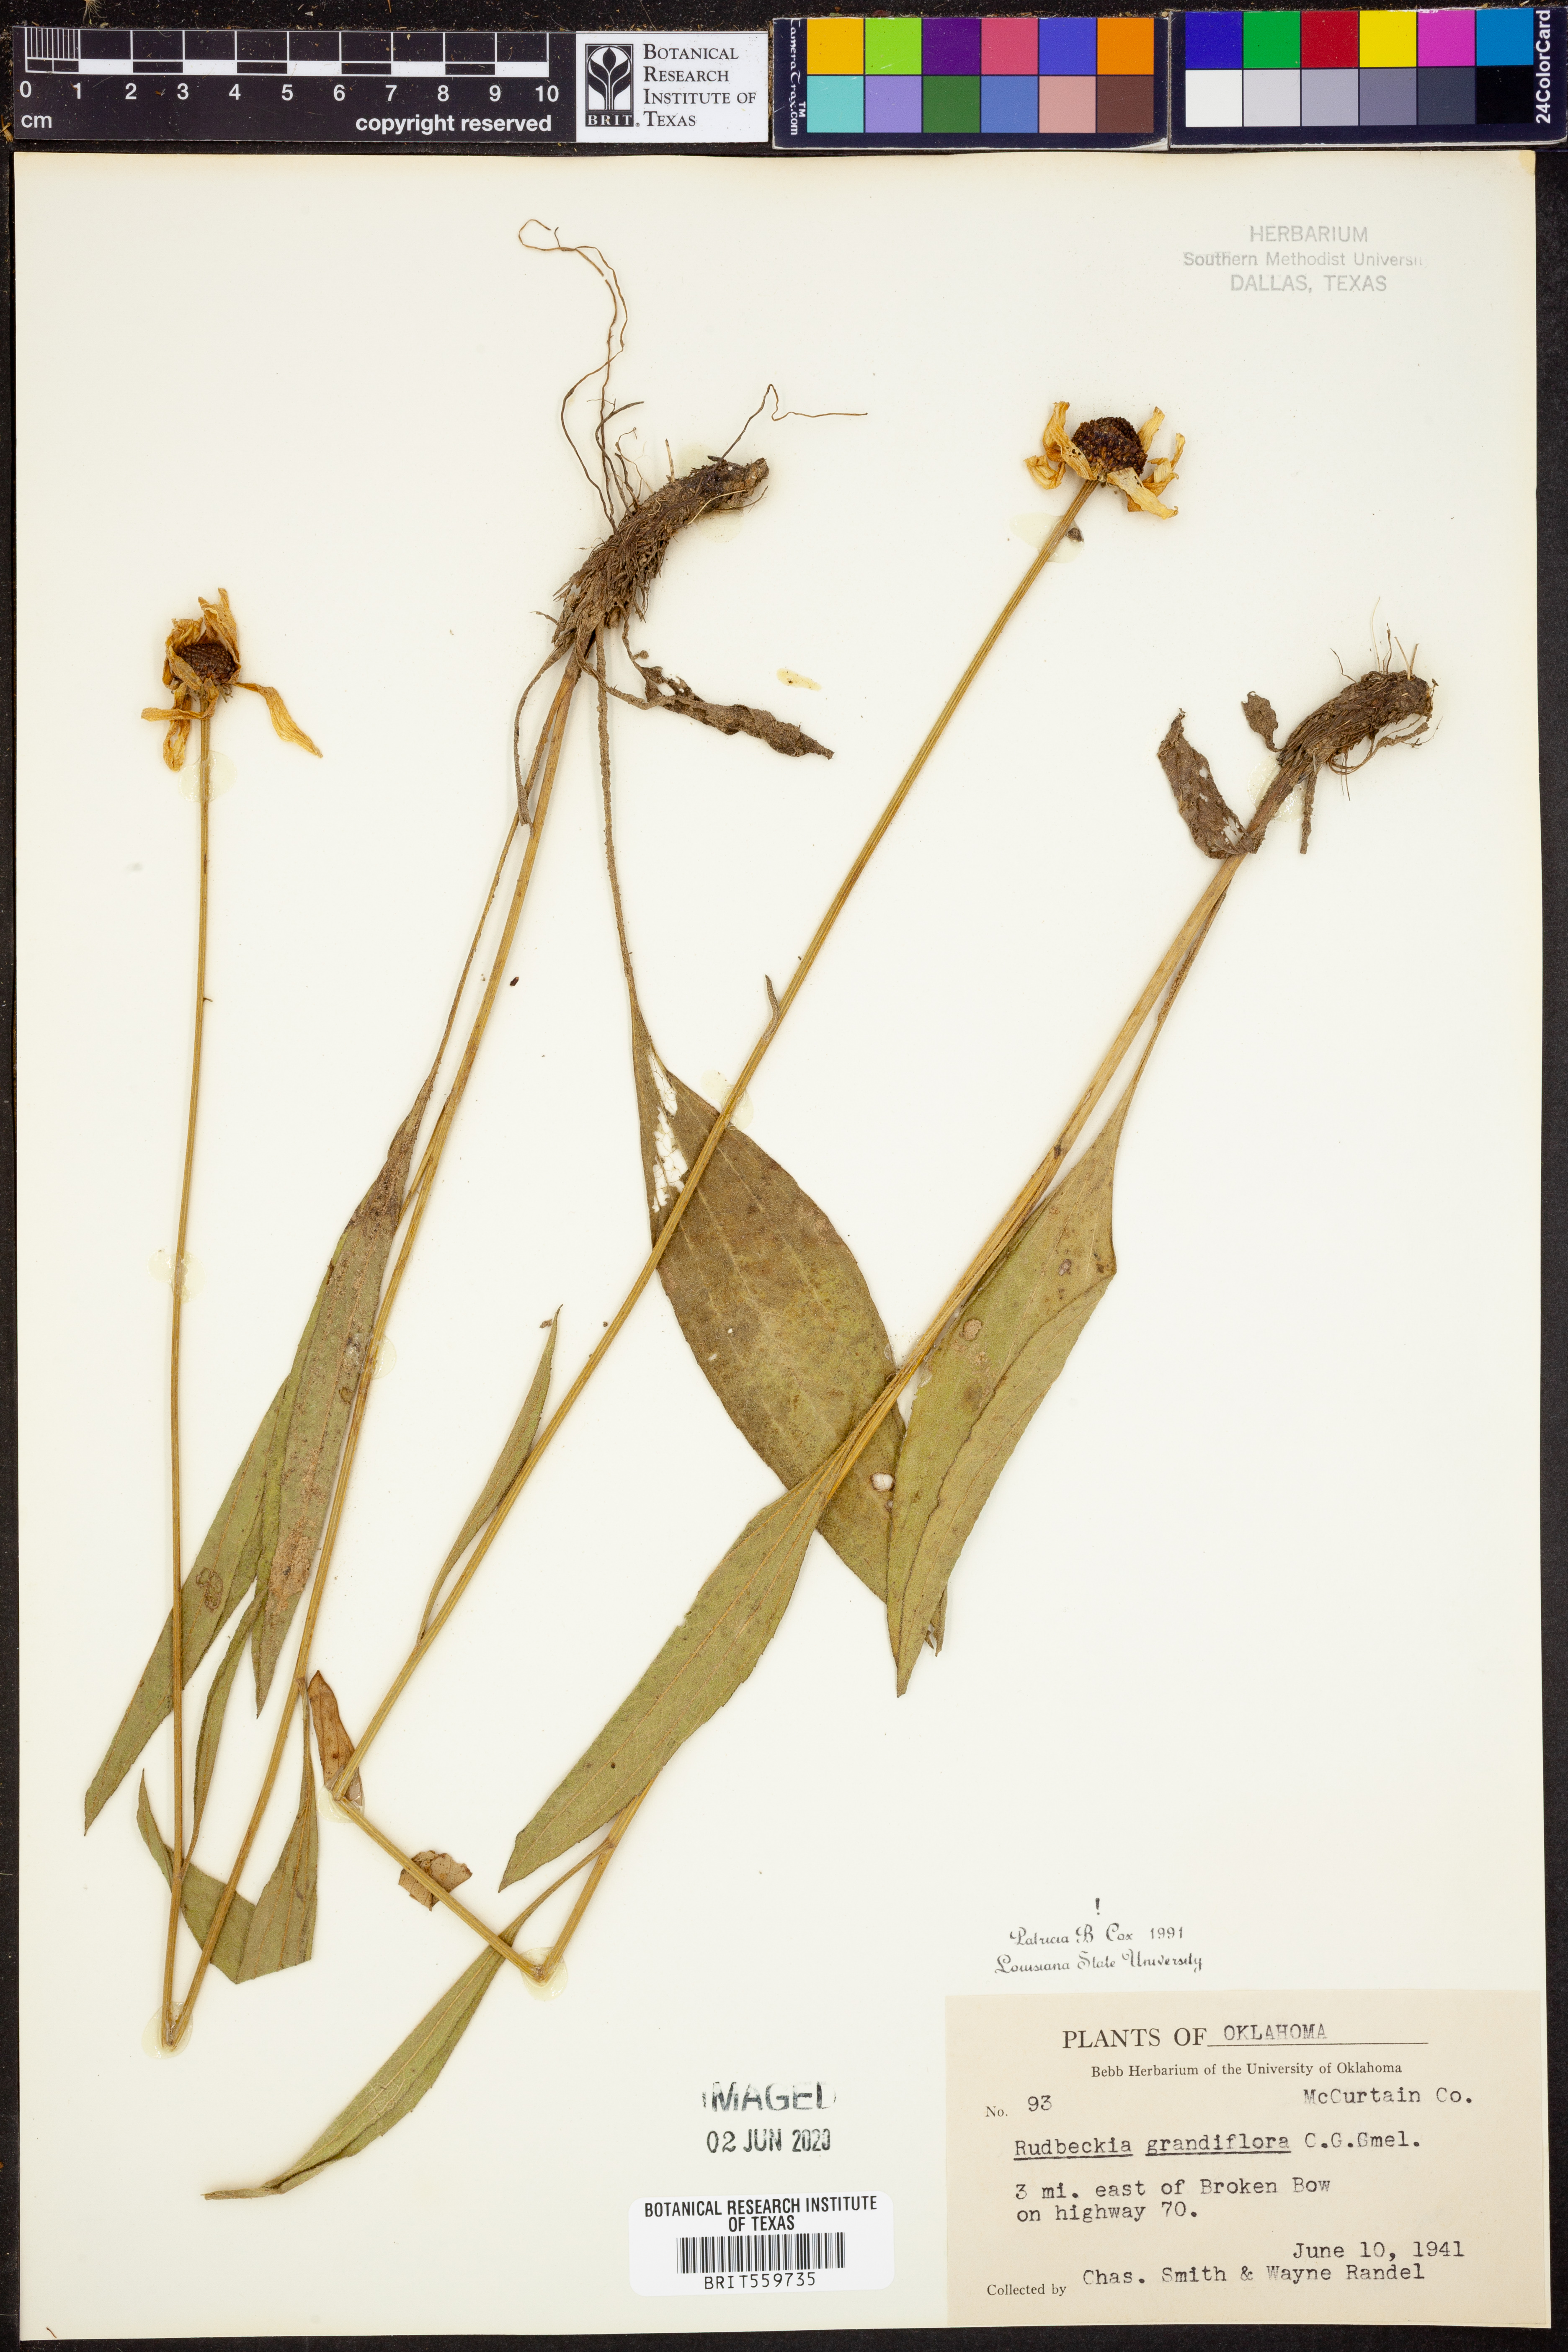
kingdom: Plantae
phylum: Tracheophyta
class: Magnoliopsida
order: Asterales
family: Asteraceae
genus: Rudbeckia
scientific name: Rudbeckia grandiflora
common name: Large-flowered coneflower
